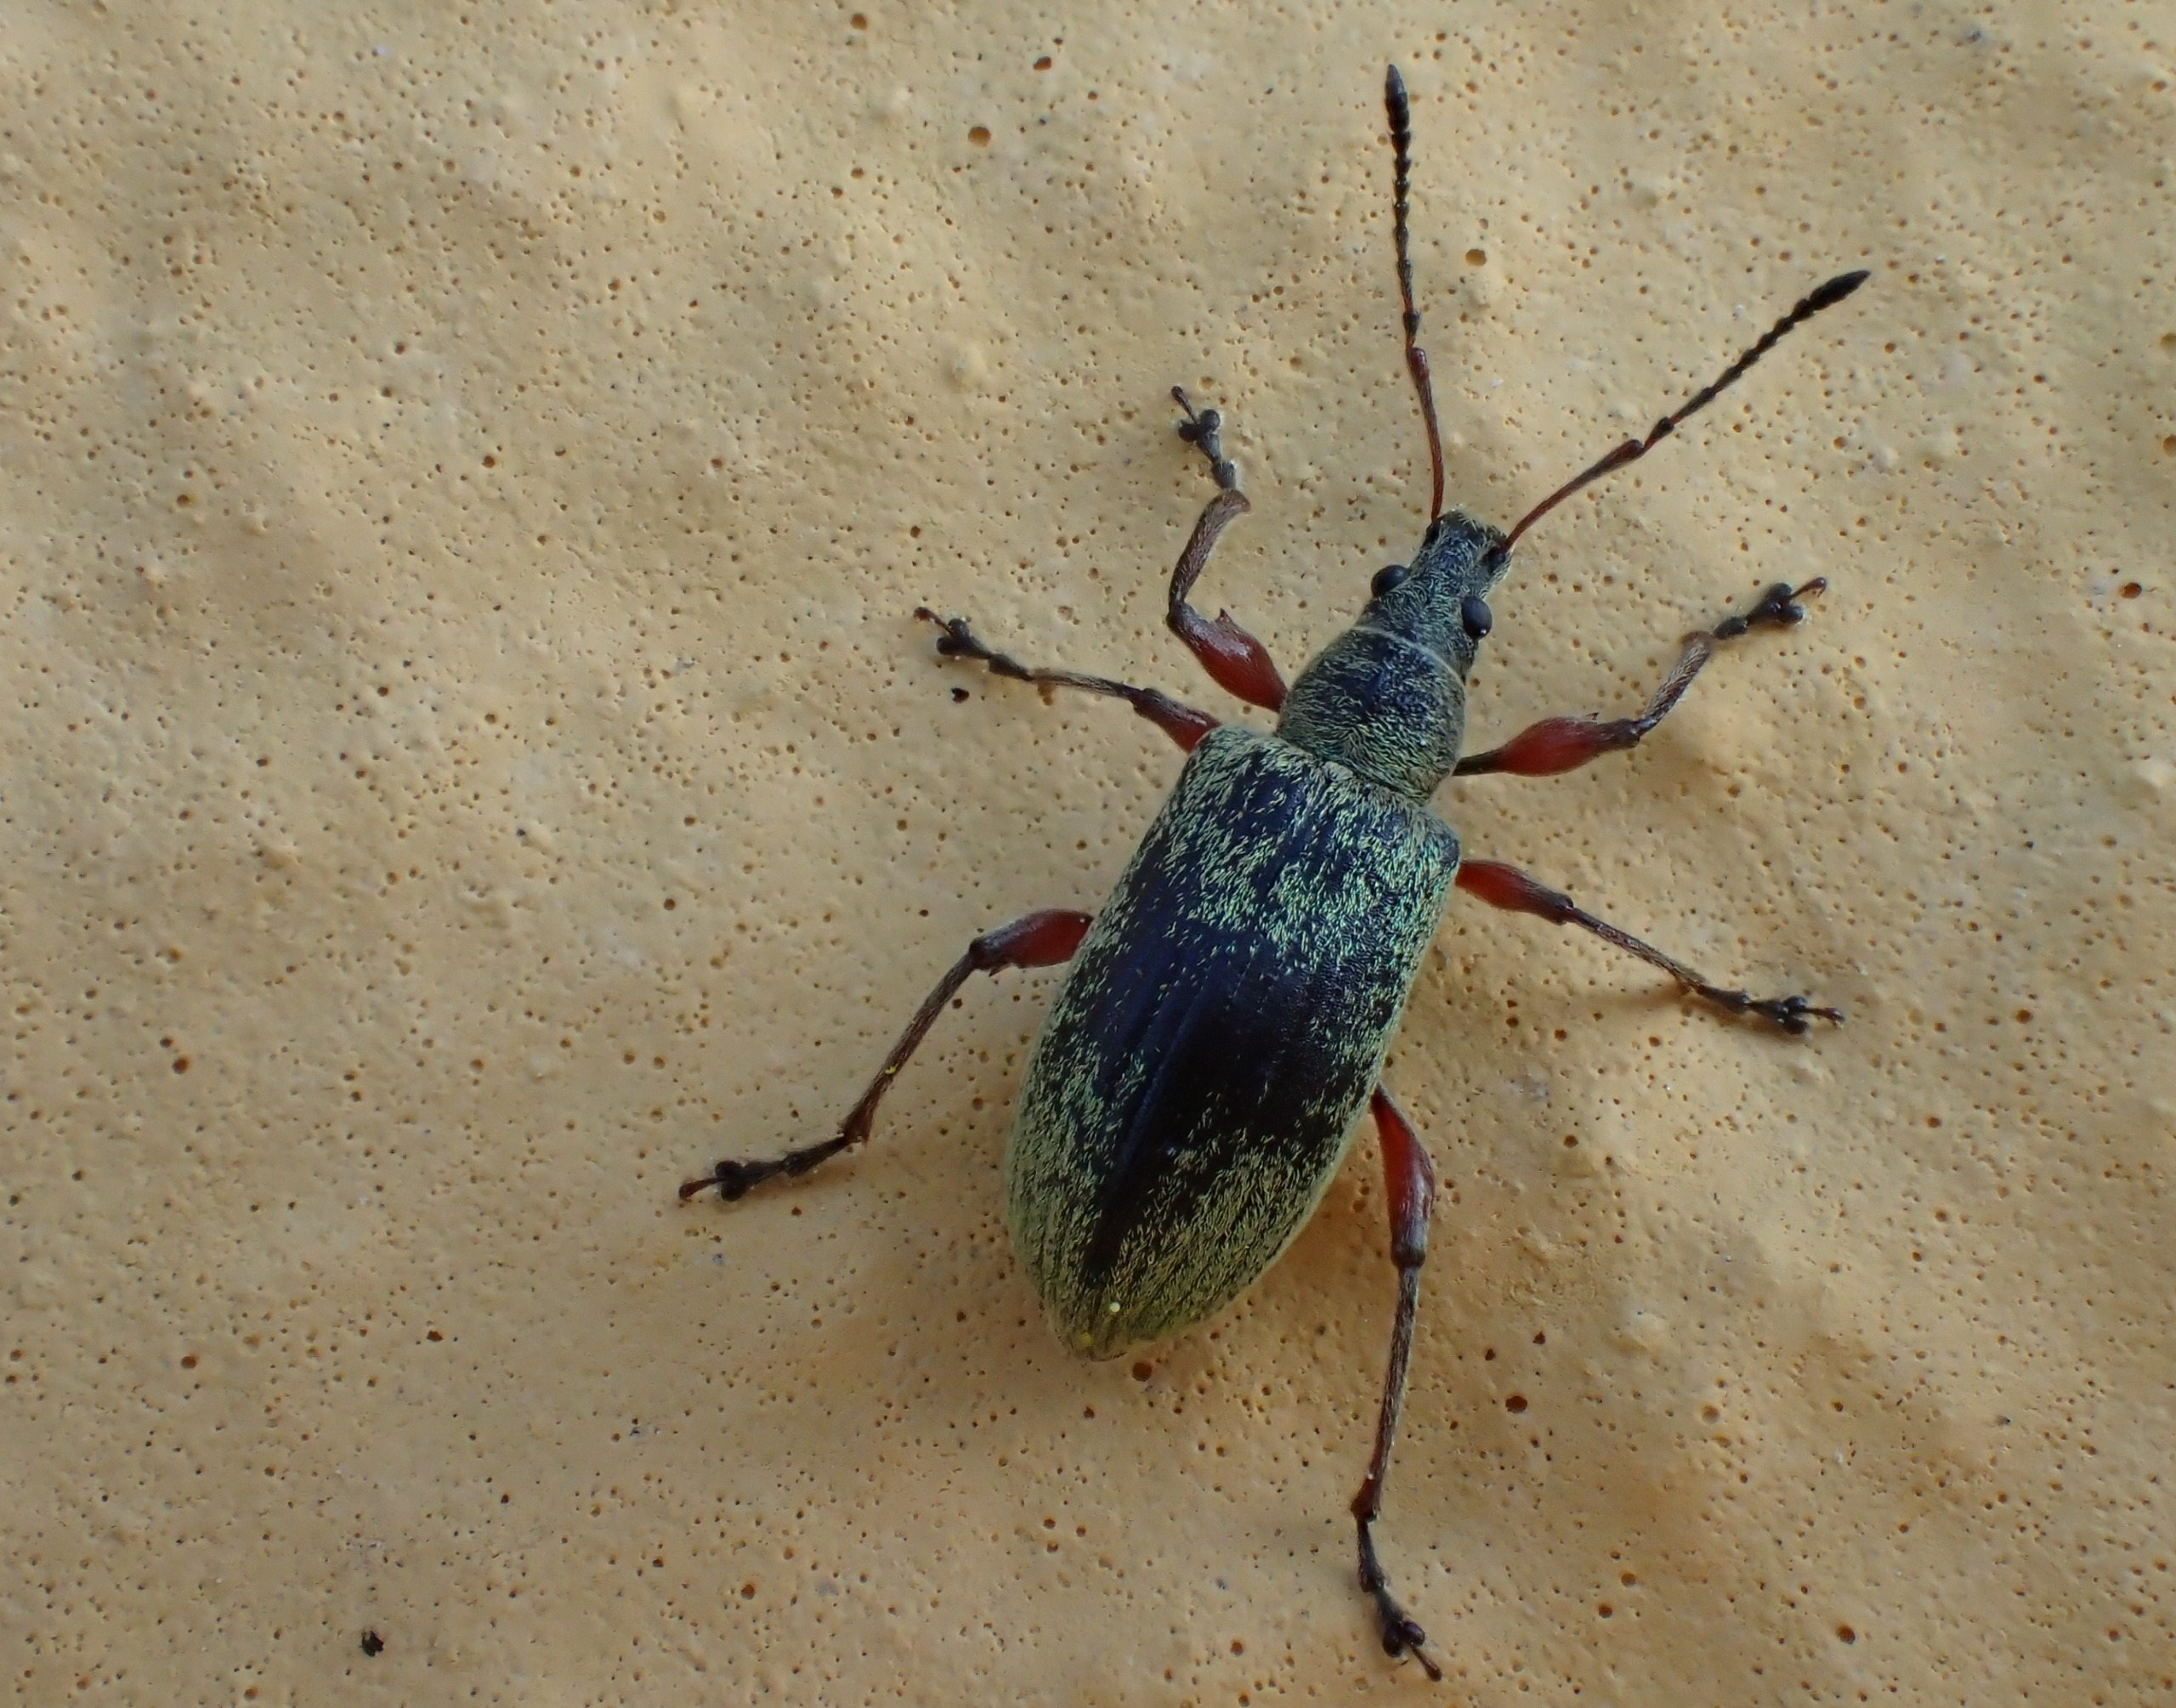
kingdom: Animalia
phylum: Arthropoda
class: Insecta
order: Coleoptera
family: Curculionidae
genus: Phyllobius
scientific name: Phyllobius glaucus
